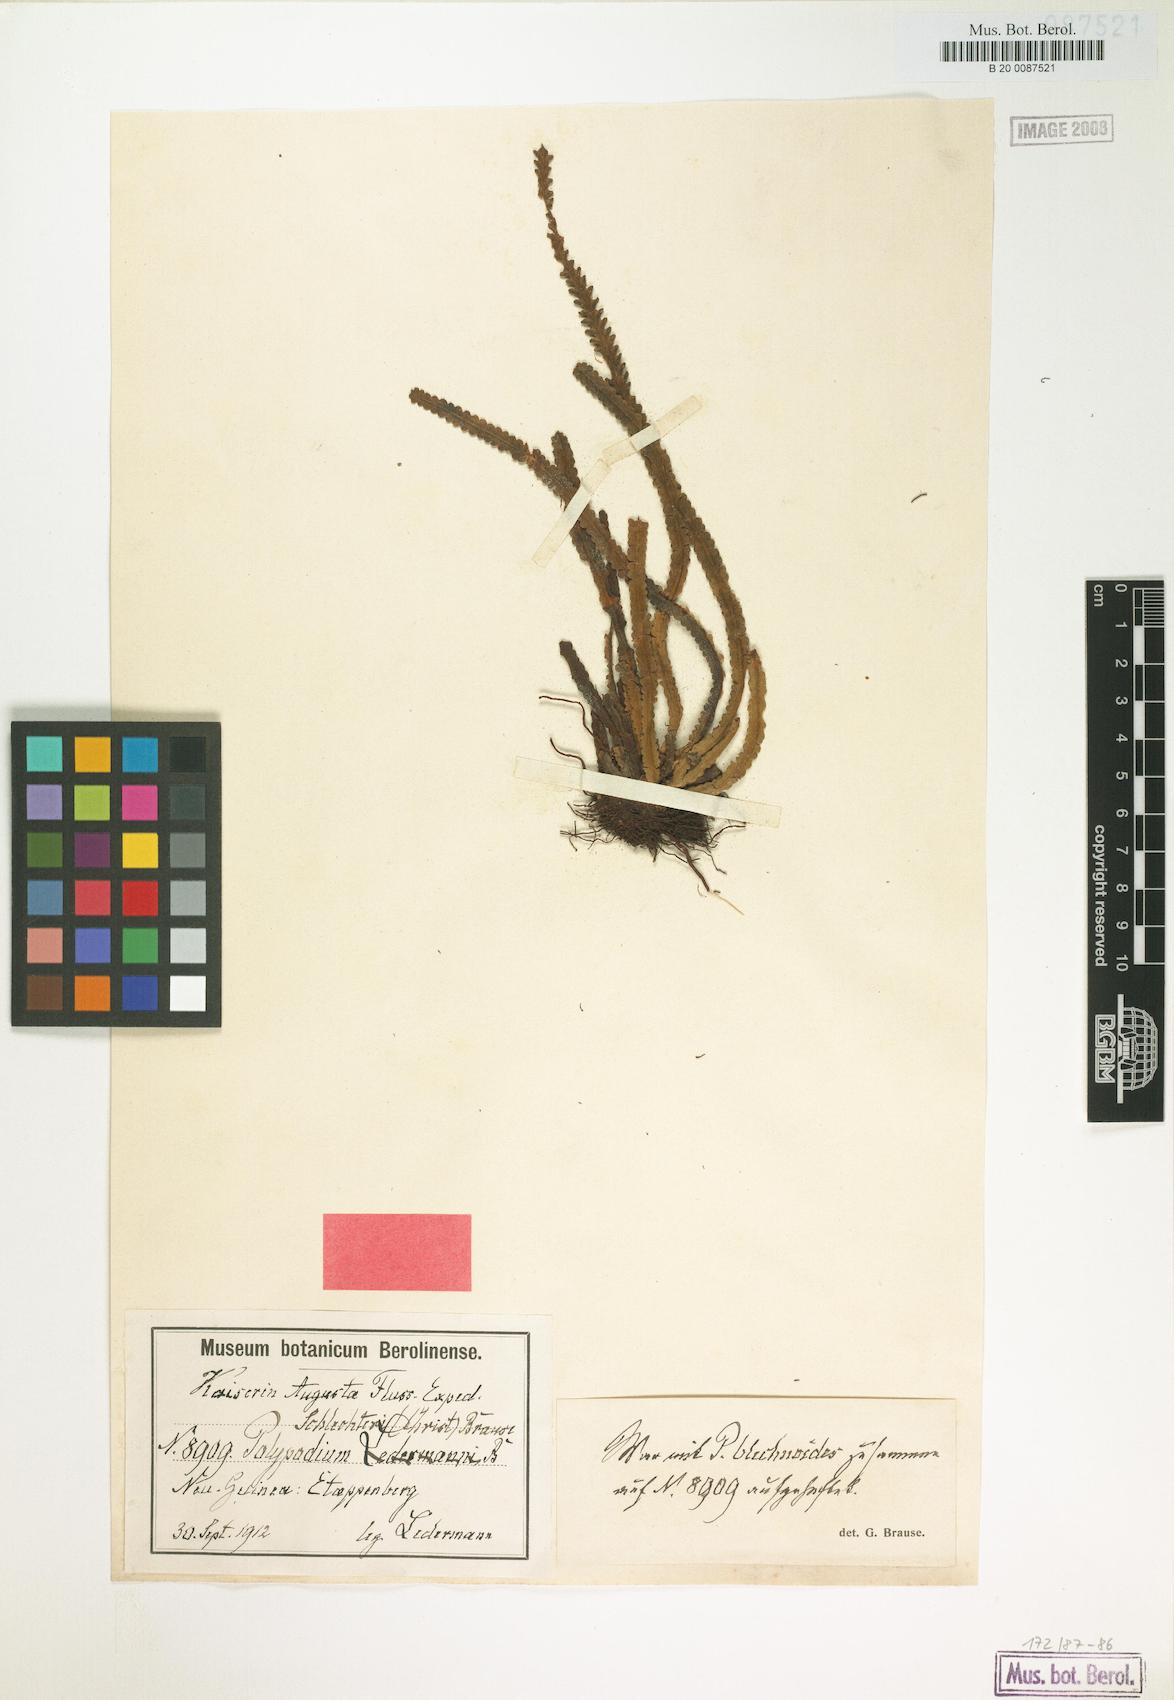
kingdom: Plantae
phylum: Tracheophyta
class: Polypodiopsida
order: Polypodiales
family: Polypodiaceae
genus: Acrosorus
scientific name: Acrosorus schlechteri
